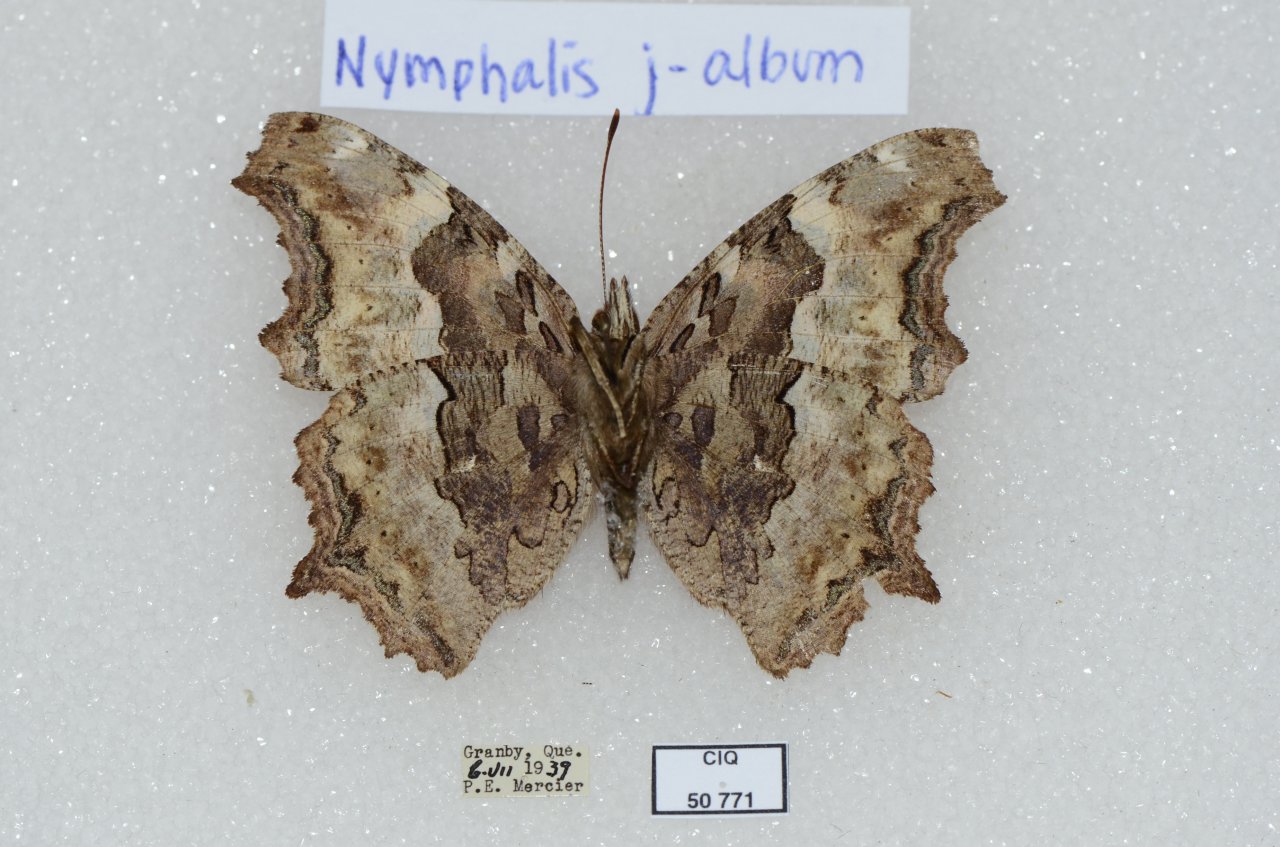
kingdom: Animalia
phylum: Arthropoda
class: Insecta
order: Lepidoptera
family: Nymphalidae
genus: Polygonia
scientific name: Polygonia vaualbum
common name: Compton Tortoiseshell
